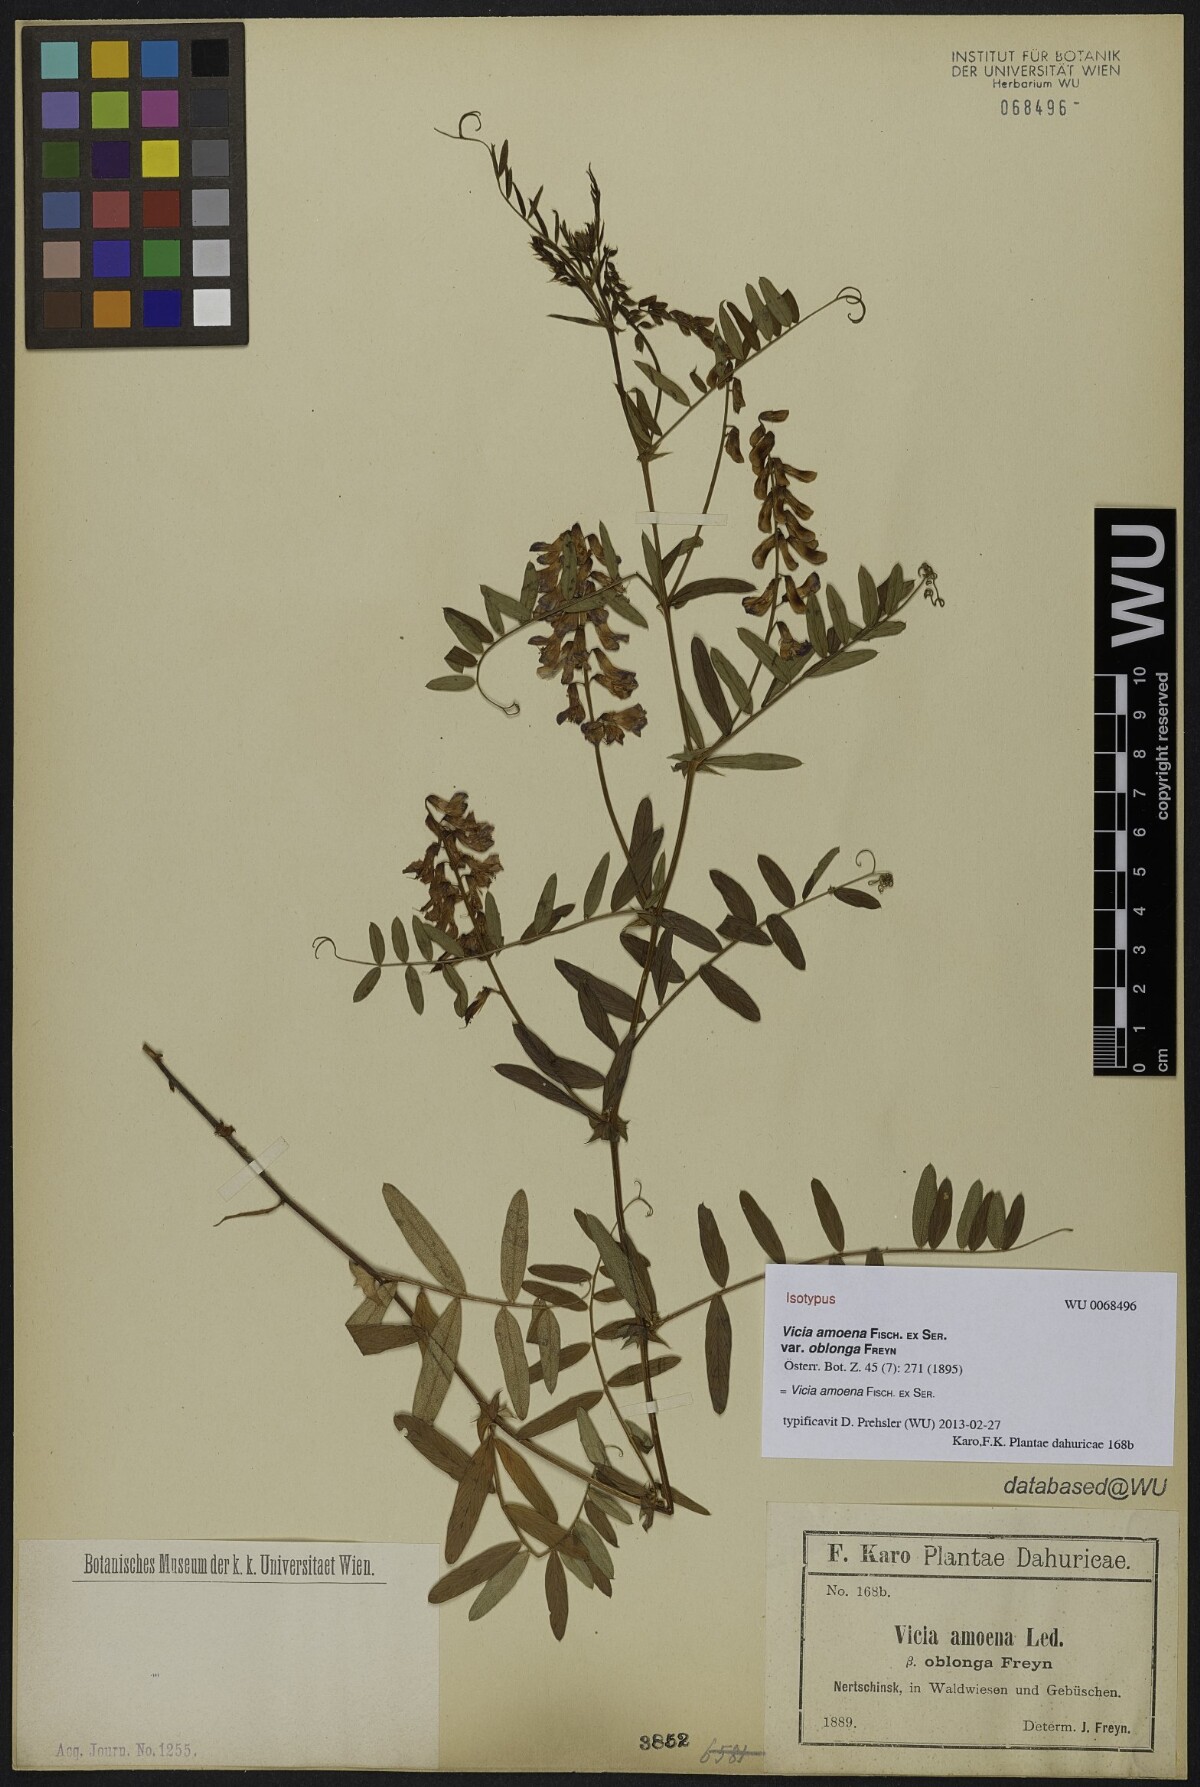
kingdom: Plantae
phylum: Tracheophyta
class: Magnoliopsida
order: Fabales
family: Fabaceae
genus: Vicia
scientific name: Vicia amoena
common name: Cheder ebs
